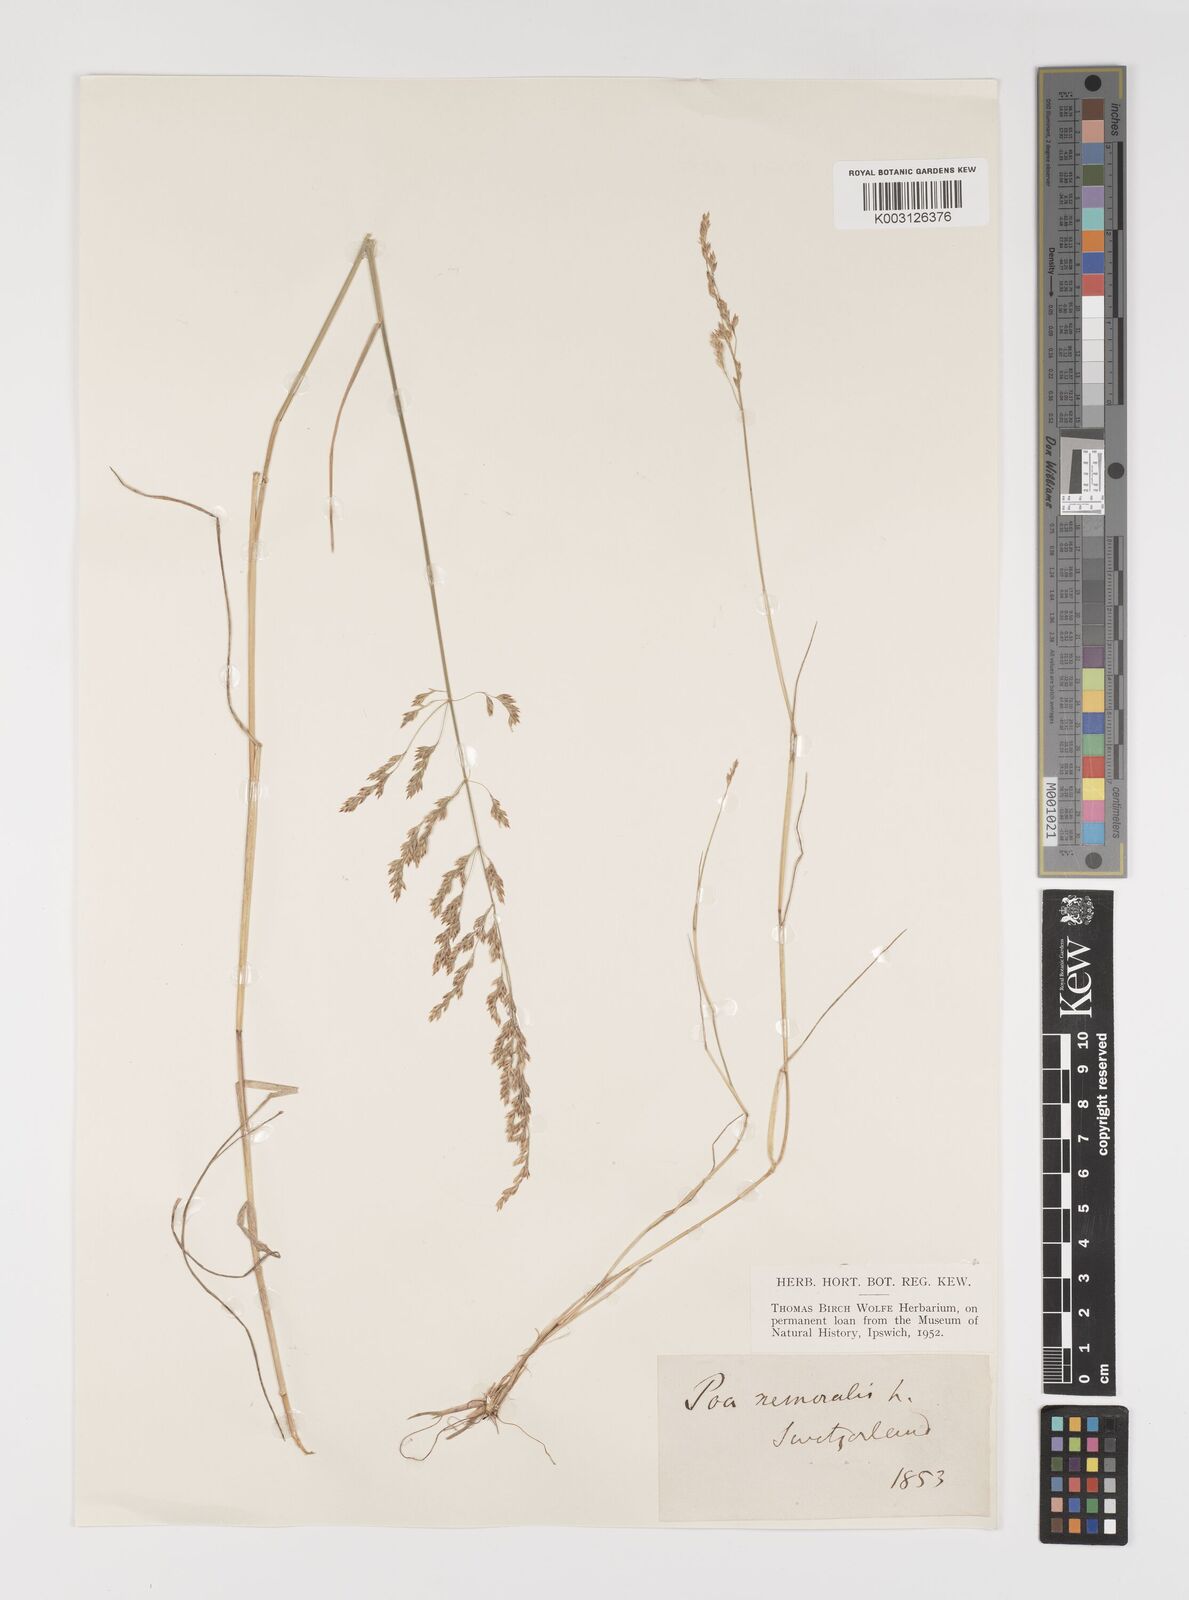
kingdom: Plantae
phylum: Tracheophyta
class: Liliopsida
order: Poales
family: Poaceae
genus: Poa
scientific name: Poa glauca
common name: Glaucous bluegrass
